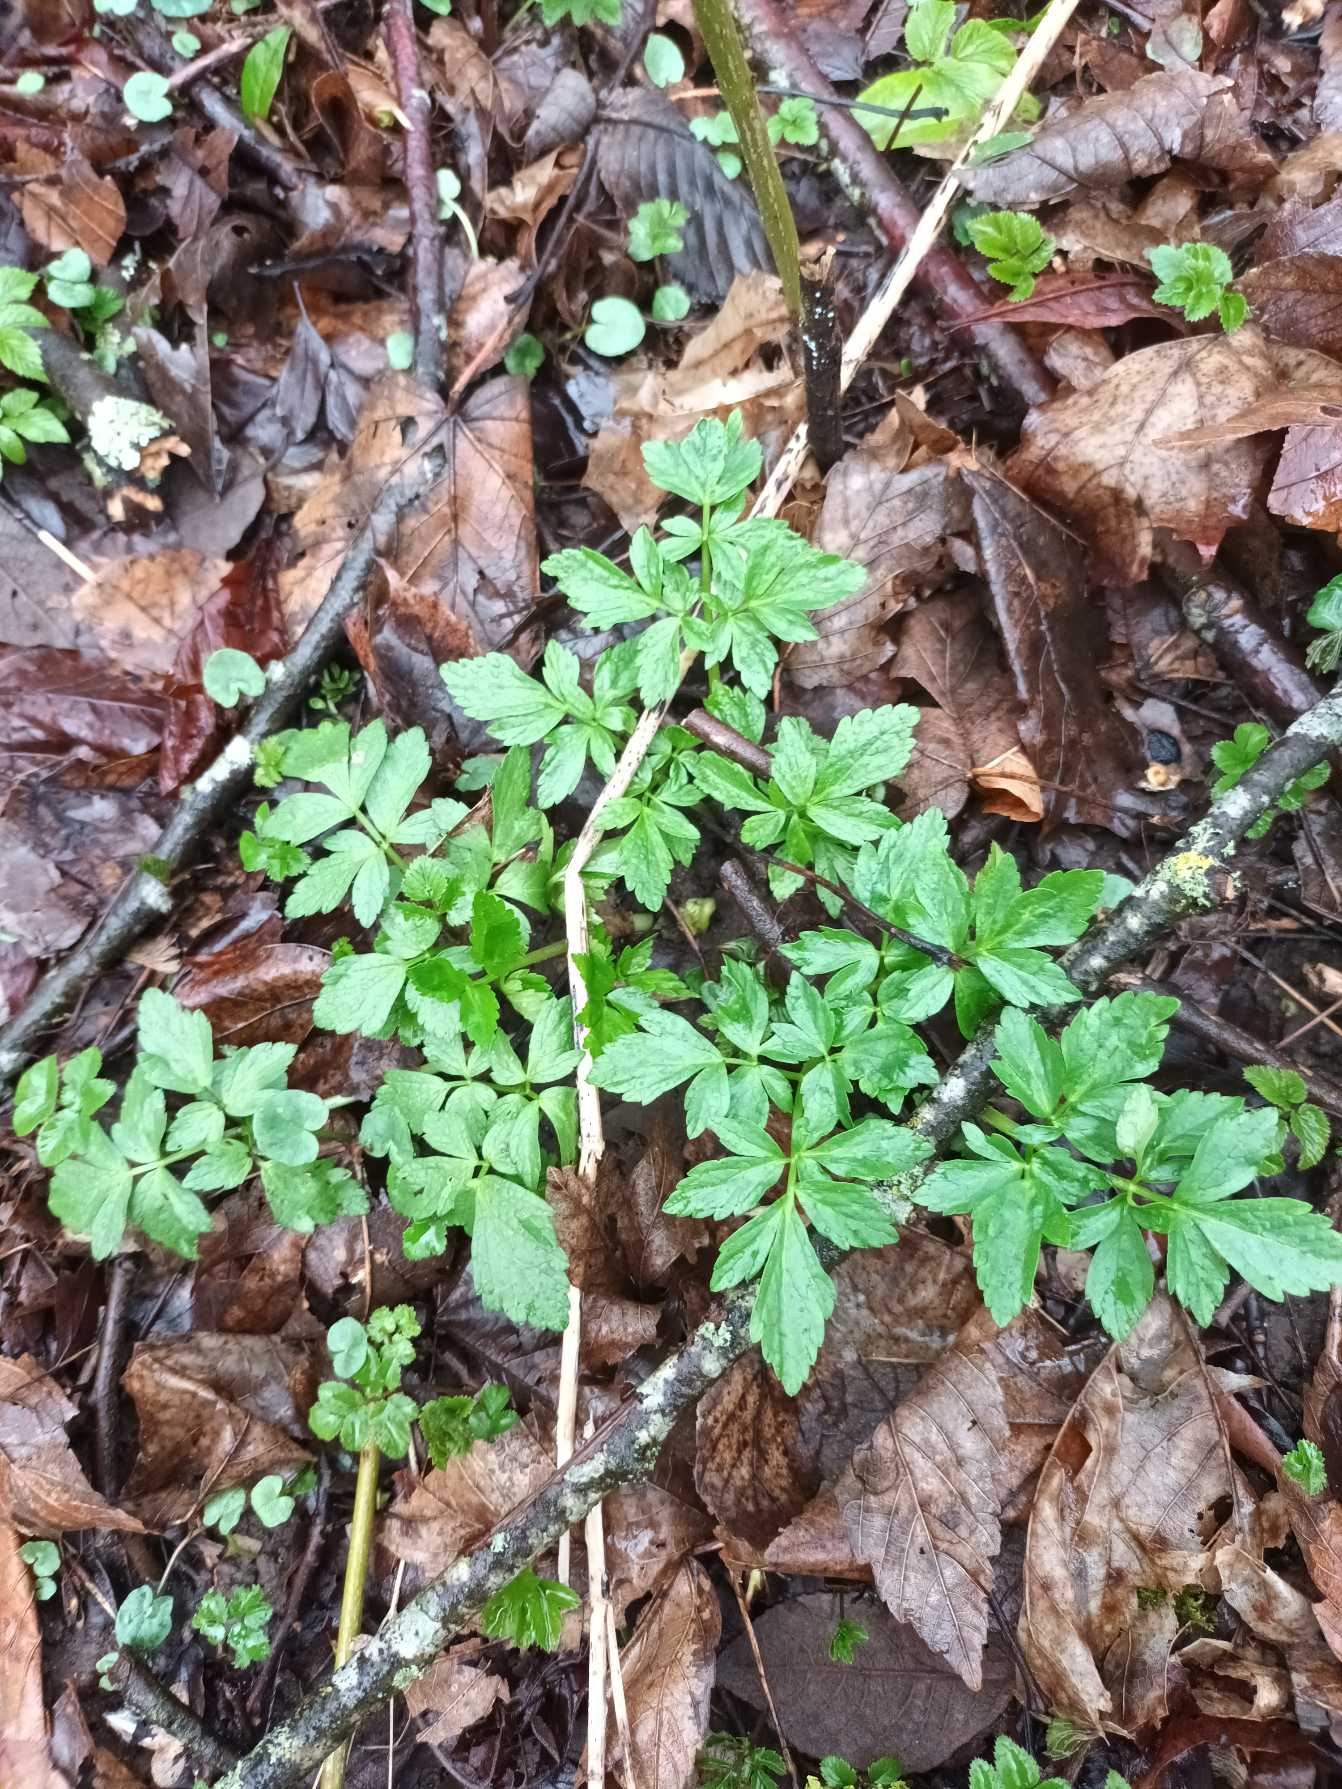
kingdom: Plantae
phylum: Tracheophyta
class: Magnoliopsida
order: Apiales
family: Apiaceae
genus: Smyrnium
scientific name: Smyrnium perfoliatum
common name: Lundgylden
